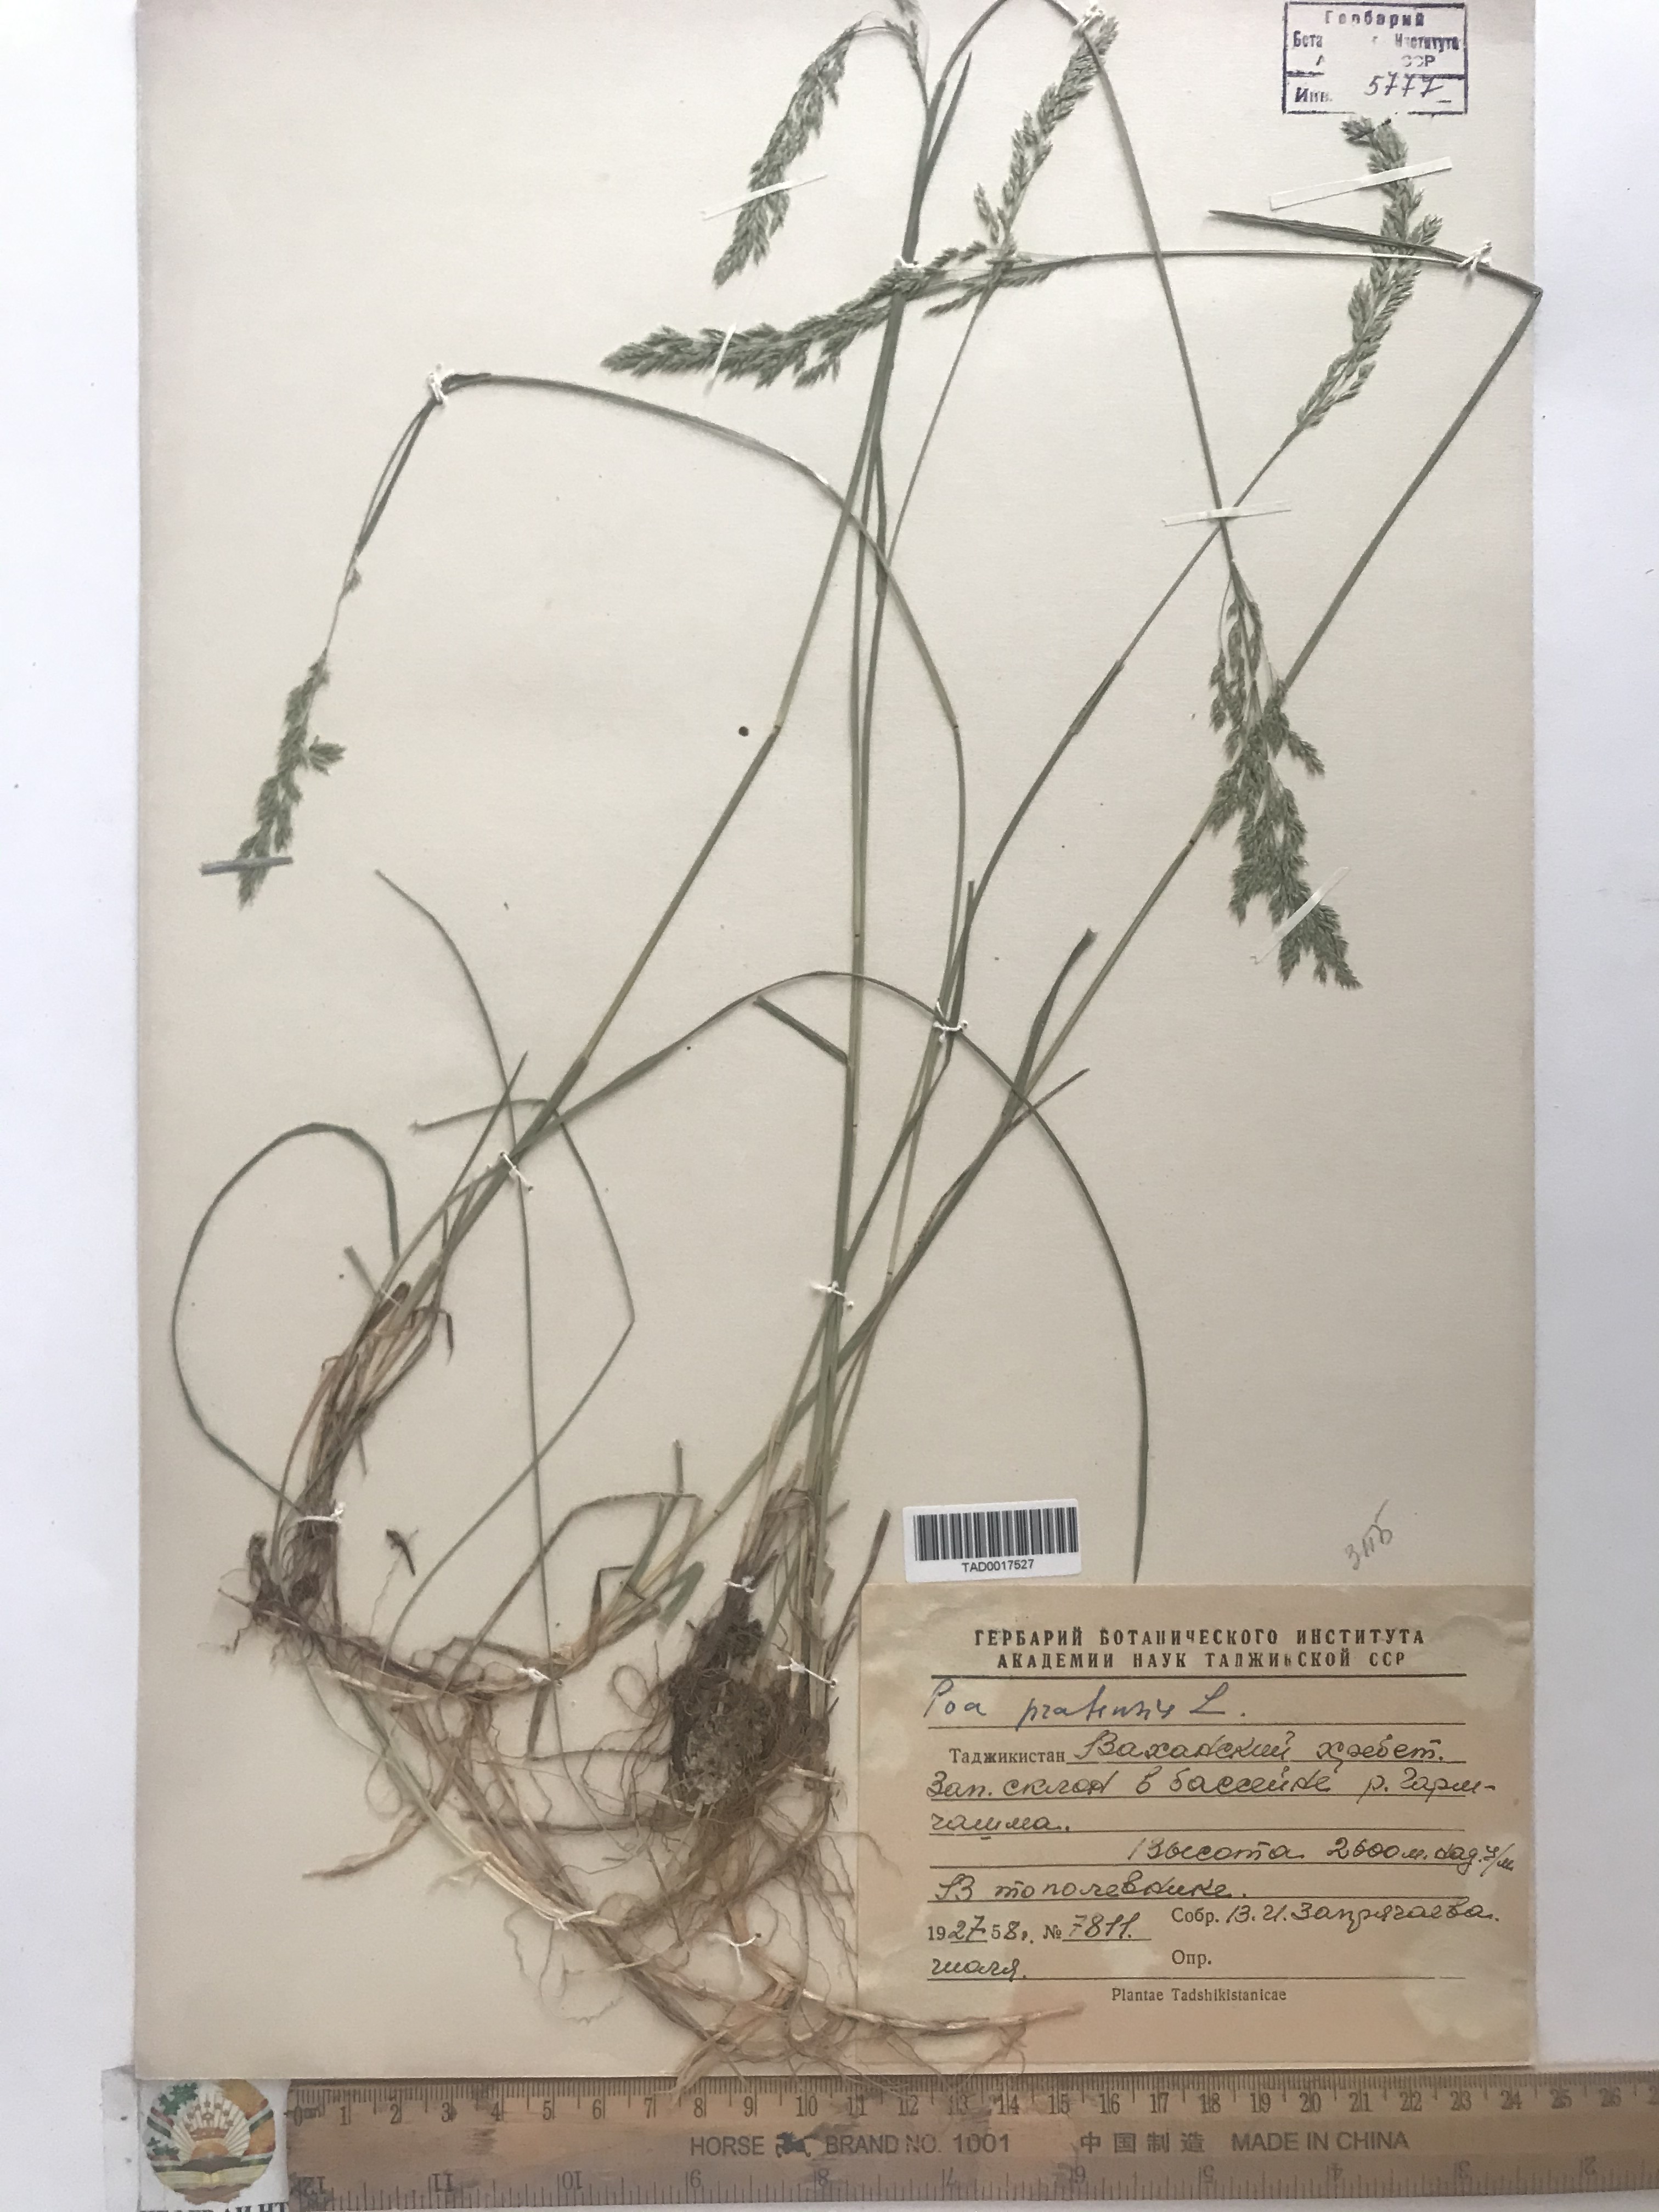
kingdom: Plantae
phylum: Tracheophyta
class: Liliopsida
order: Poales
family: Poaceae
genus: Poa
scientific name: Poa pratensis
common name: Kentucky bluegrass
